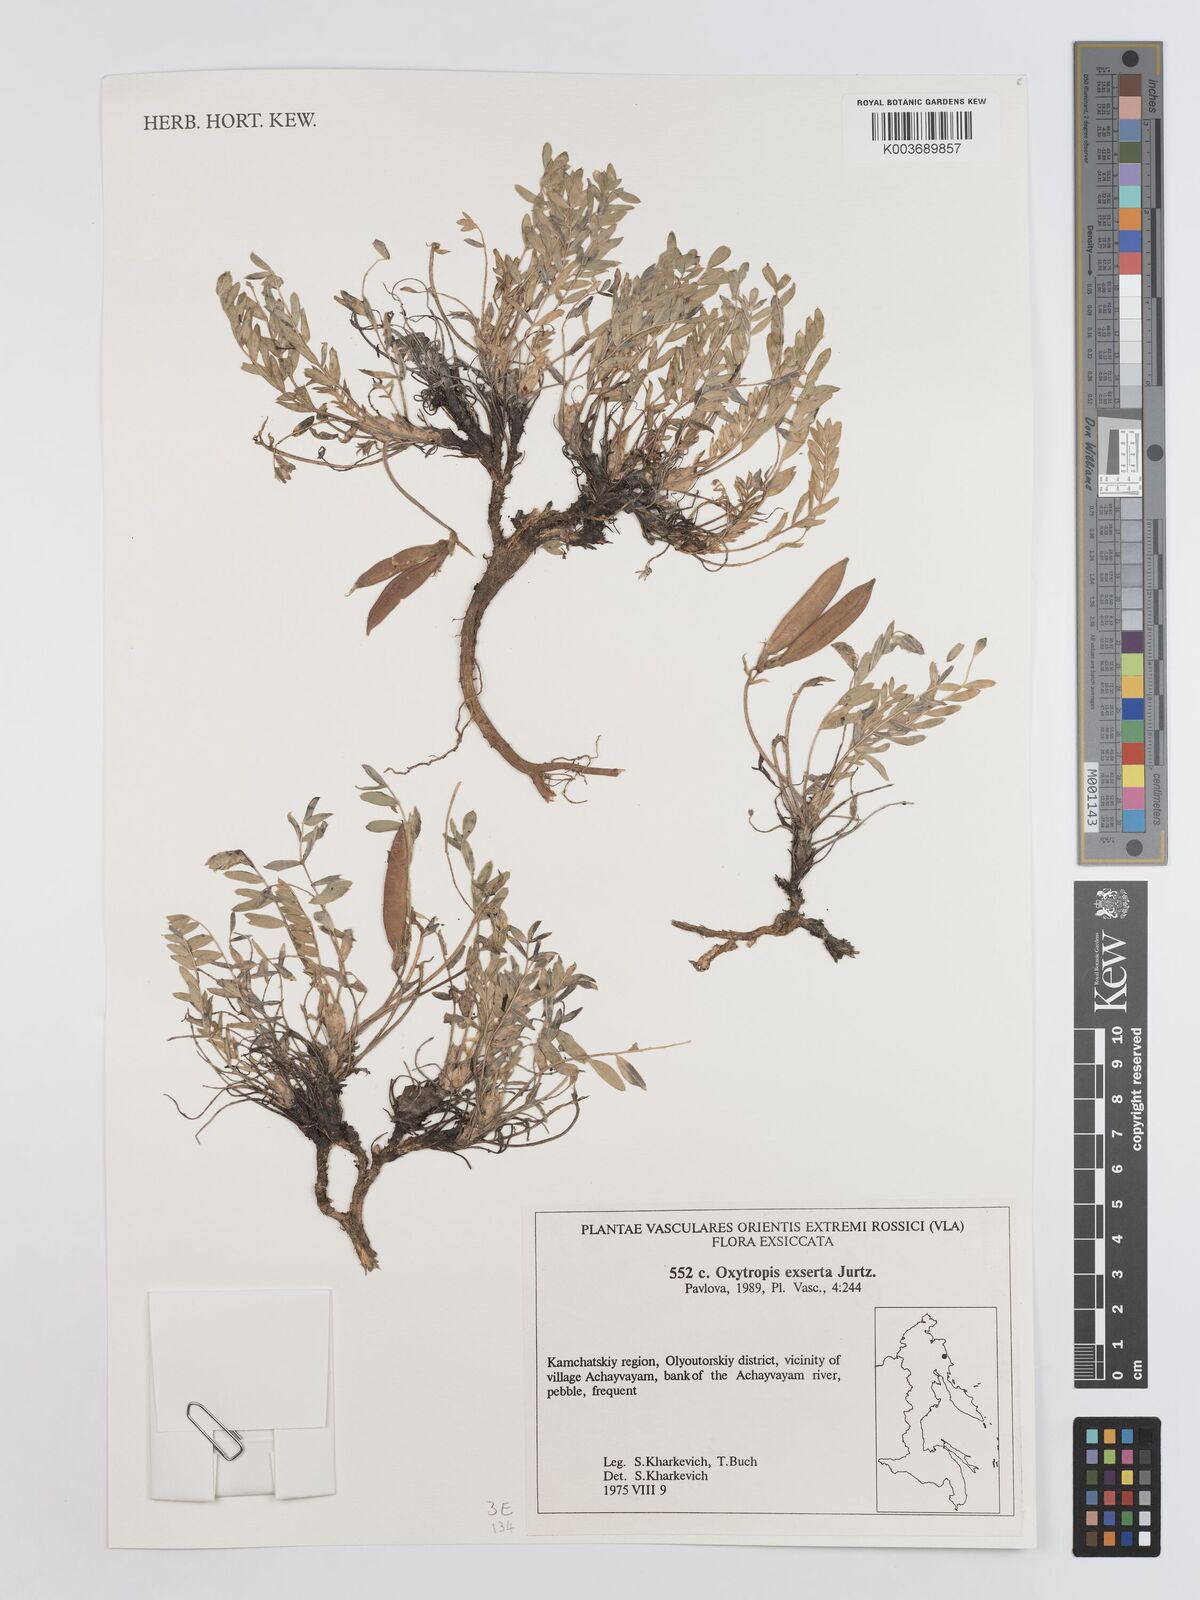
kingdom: Plantae
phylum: Tracheophyta
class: Magnoliopsida
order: Fabales
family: Fabaceae
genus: Oxytropis
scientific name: Oxytropis exserta
